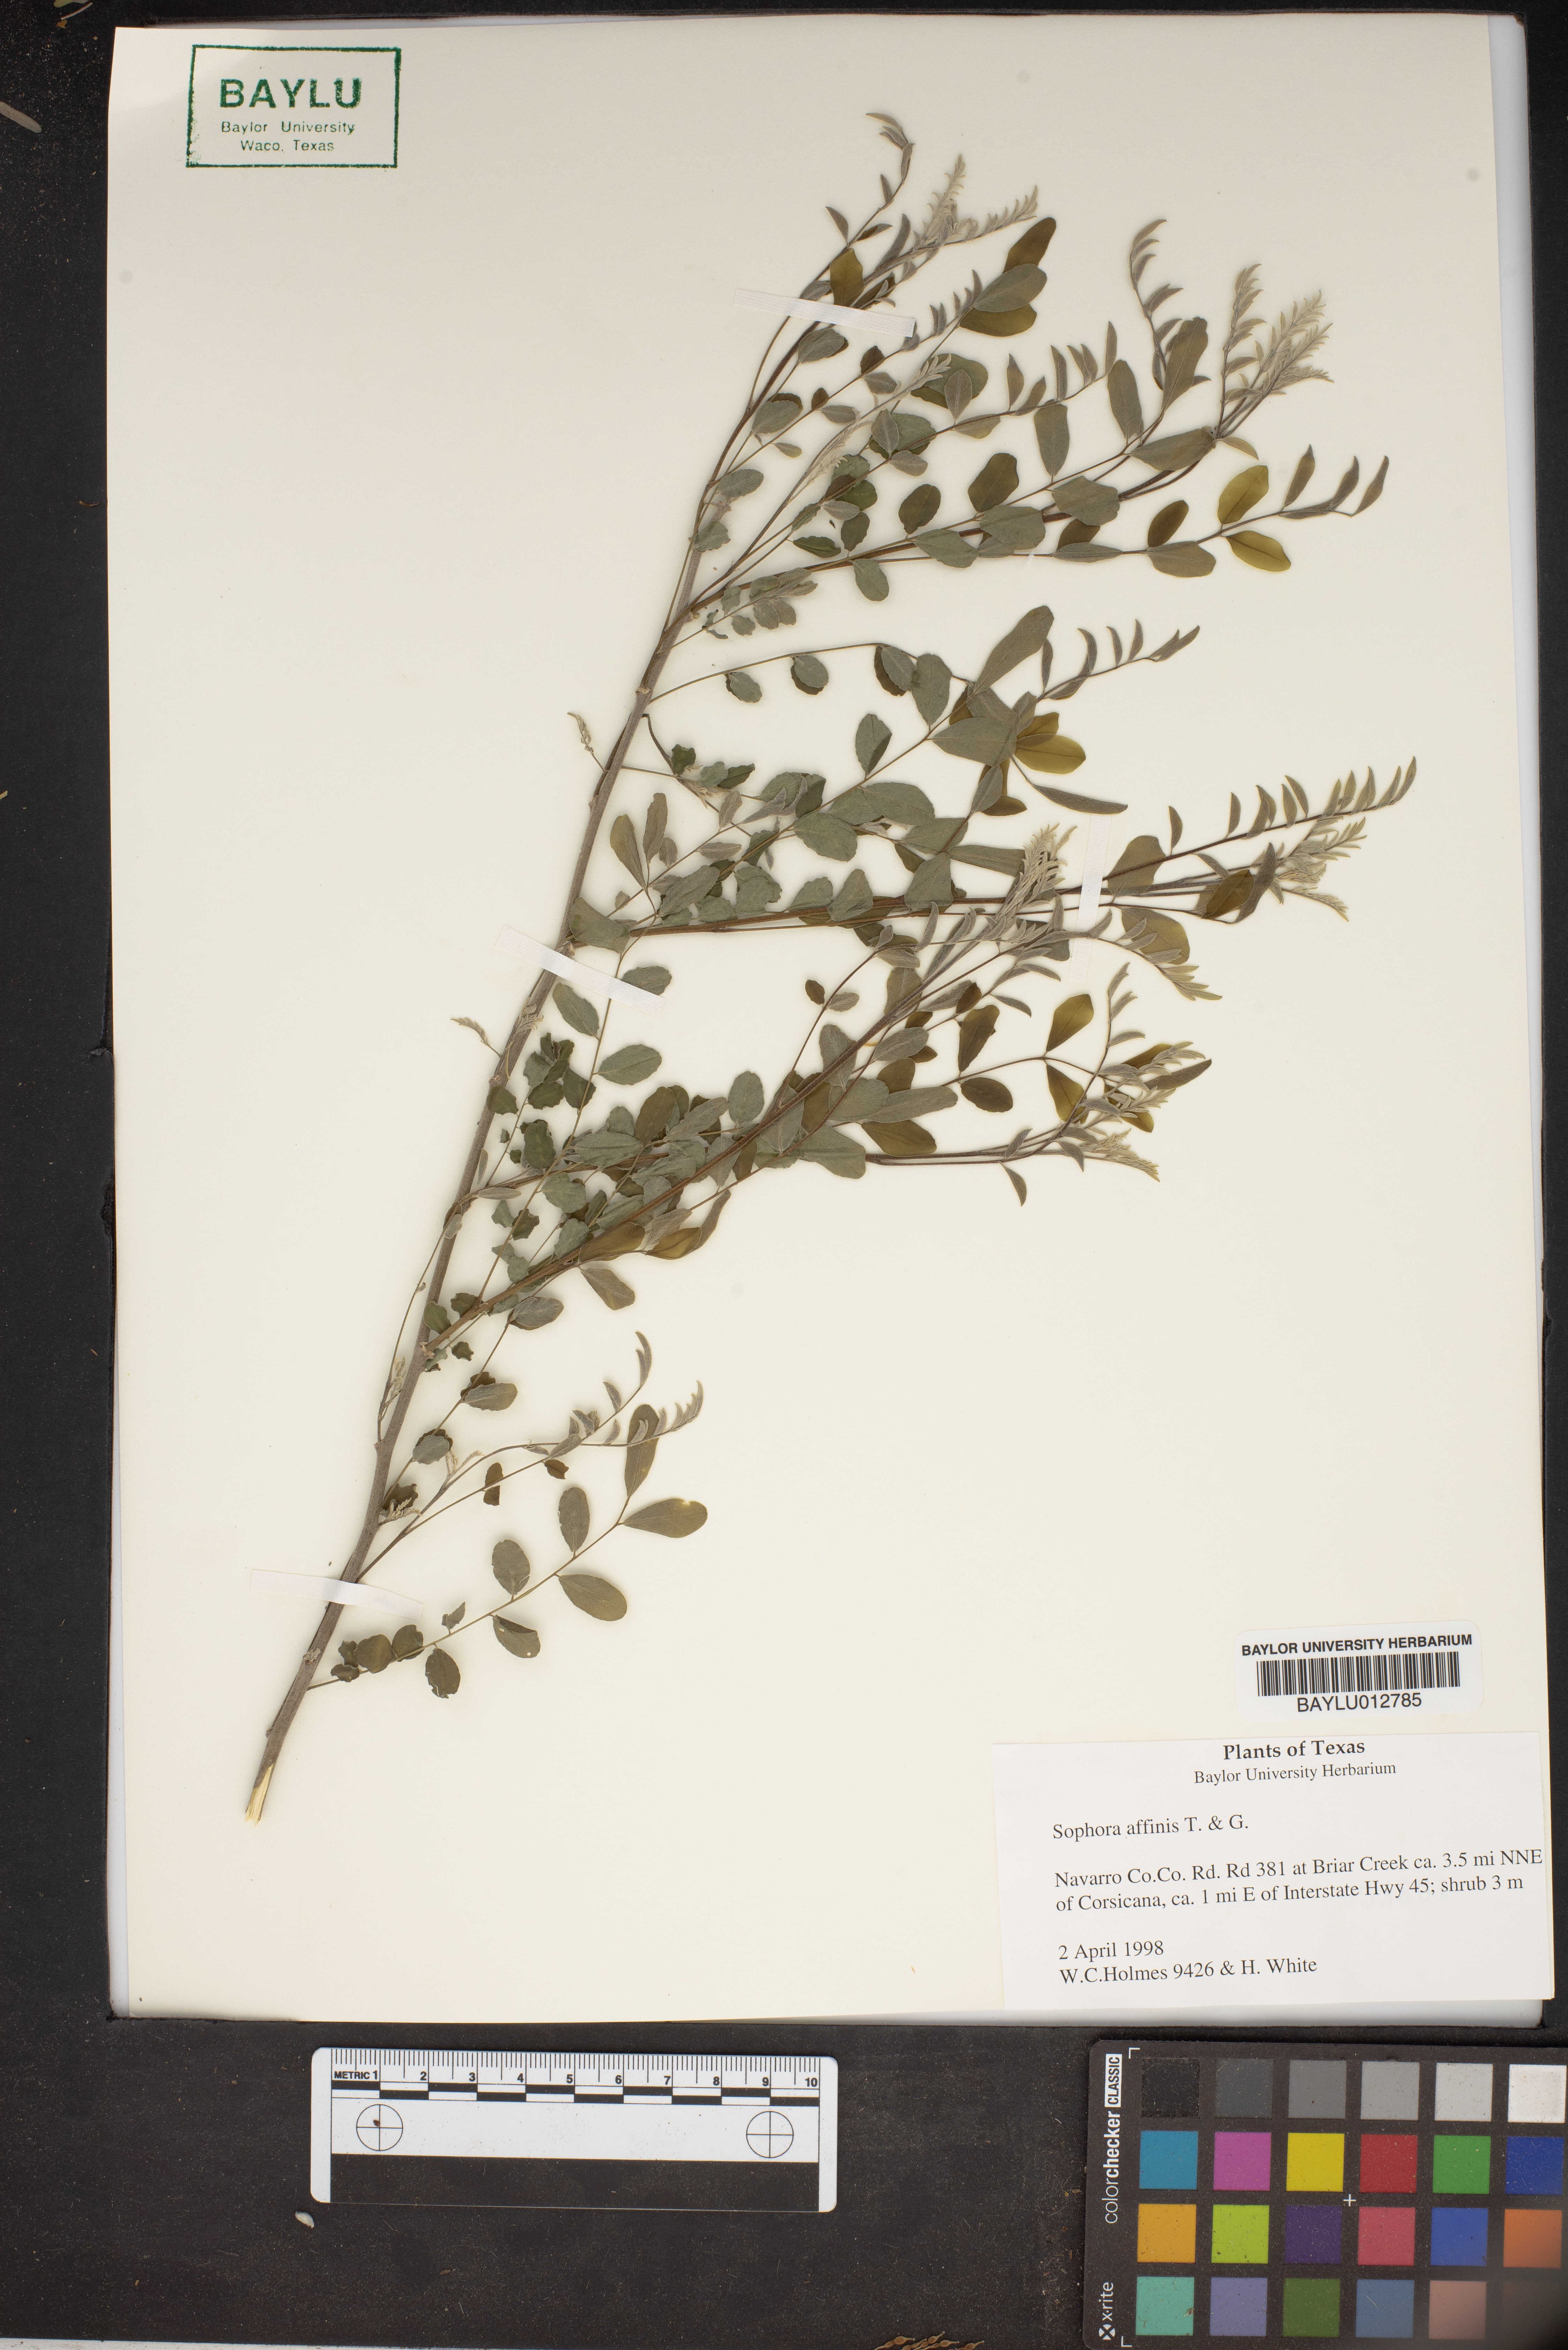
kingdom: Plantae
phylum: Tracheophyta
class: Magnoliopsida
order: Fabales
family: Fabaceae
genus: Styphnolobium
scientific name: Styphnolobium affine
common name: Texas sophora
